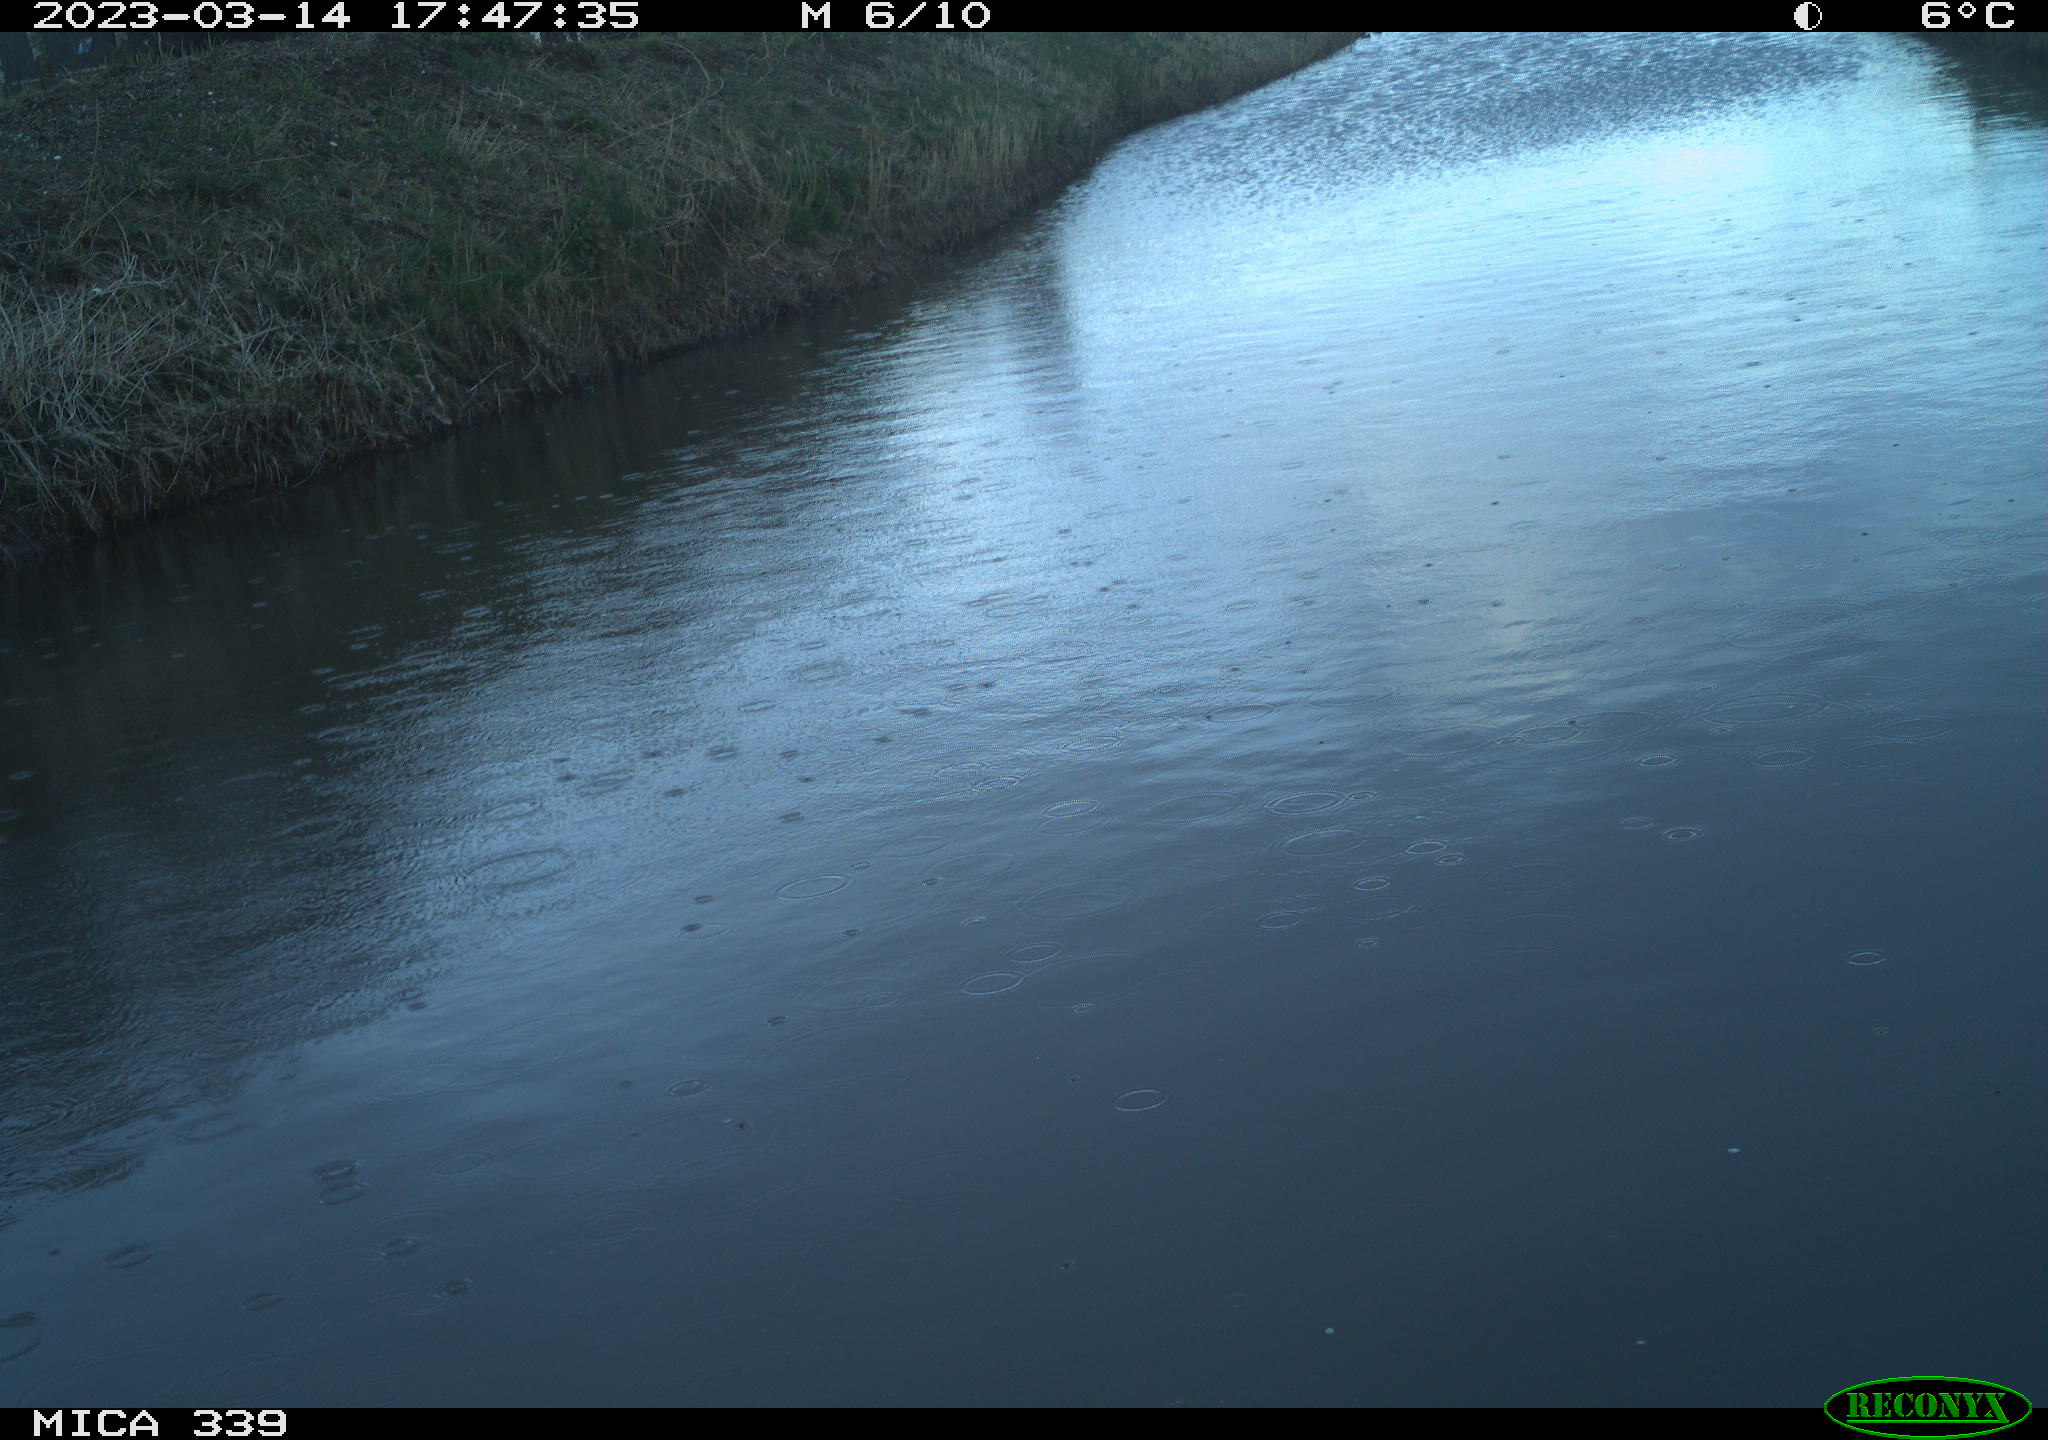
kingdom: Animalia
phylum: Chordata
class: Aves
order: Pelecaniformes
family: Ardeidae
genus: Ardea
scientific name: Ardea
